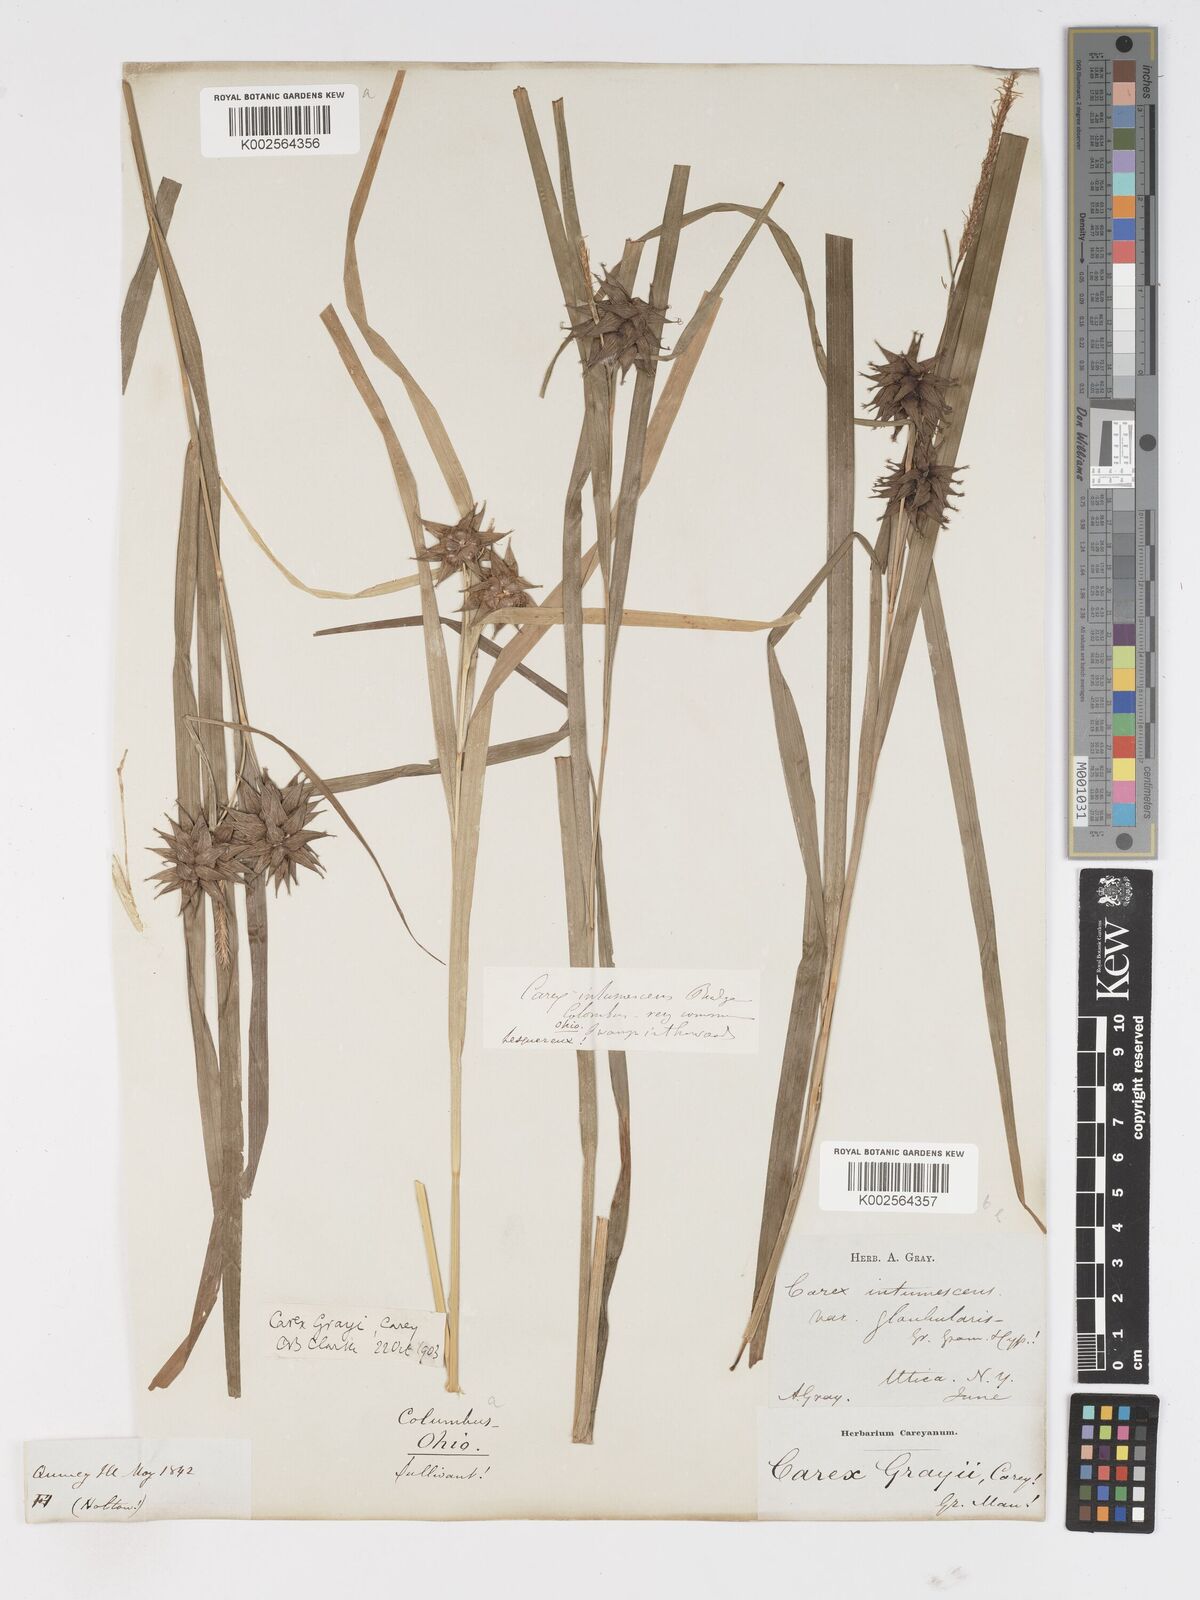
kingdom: Plantae
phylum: Tracheophyta
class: Liliopsida
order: Poales
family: Cyperaceae
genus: Carex
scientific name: Carex grayi
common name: Asa gray's sedge
